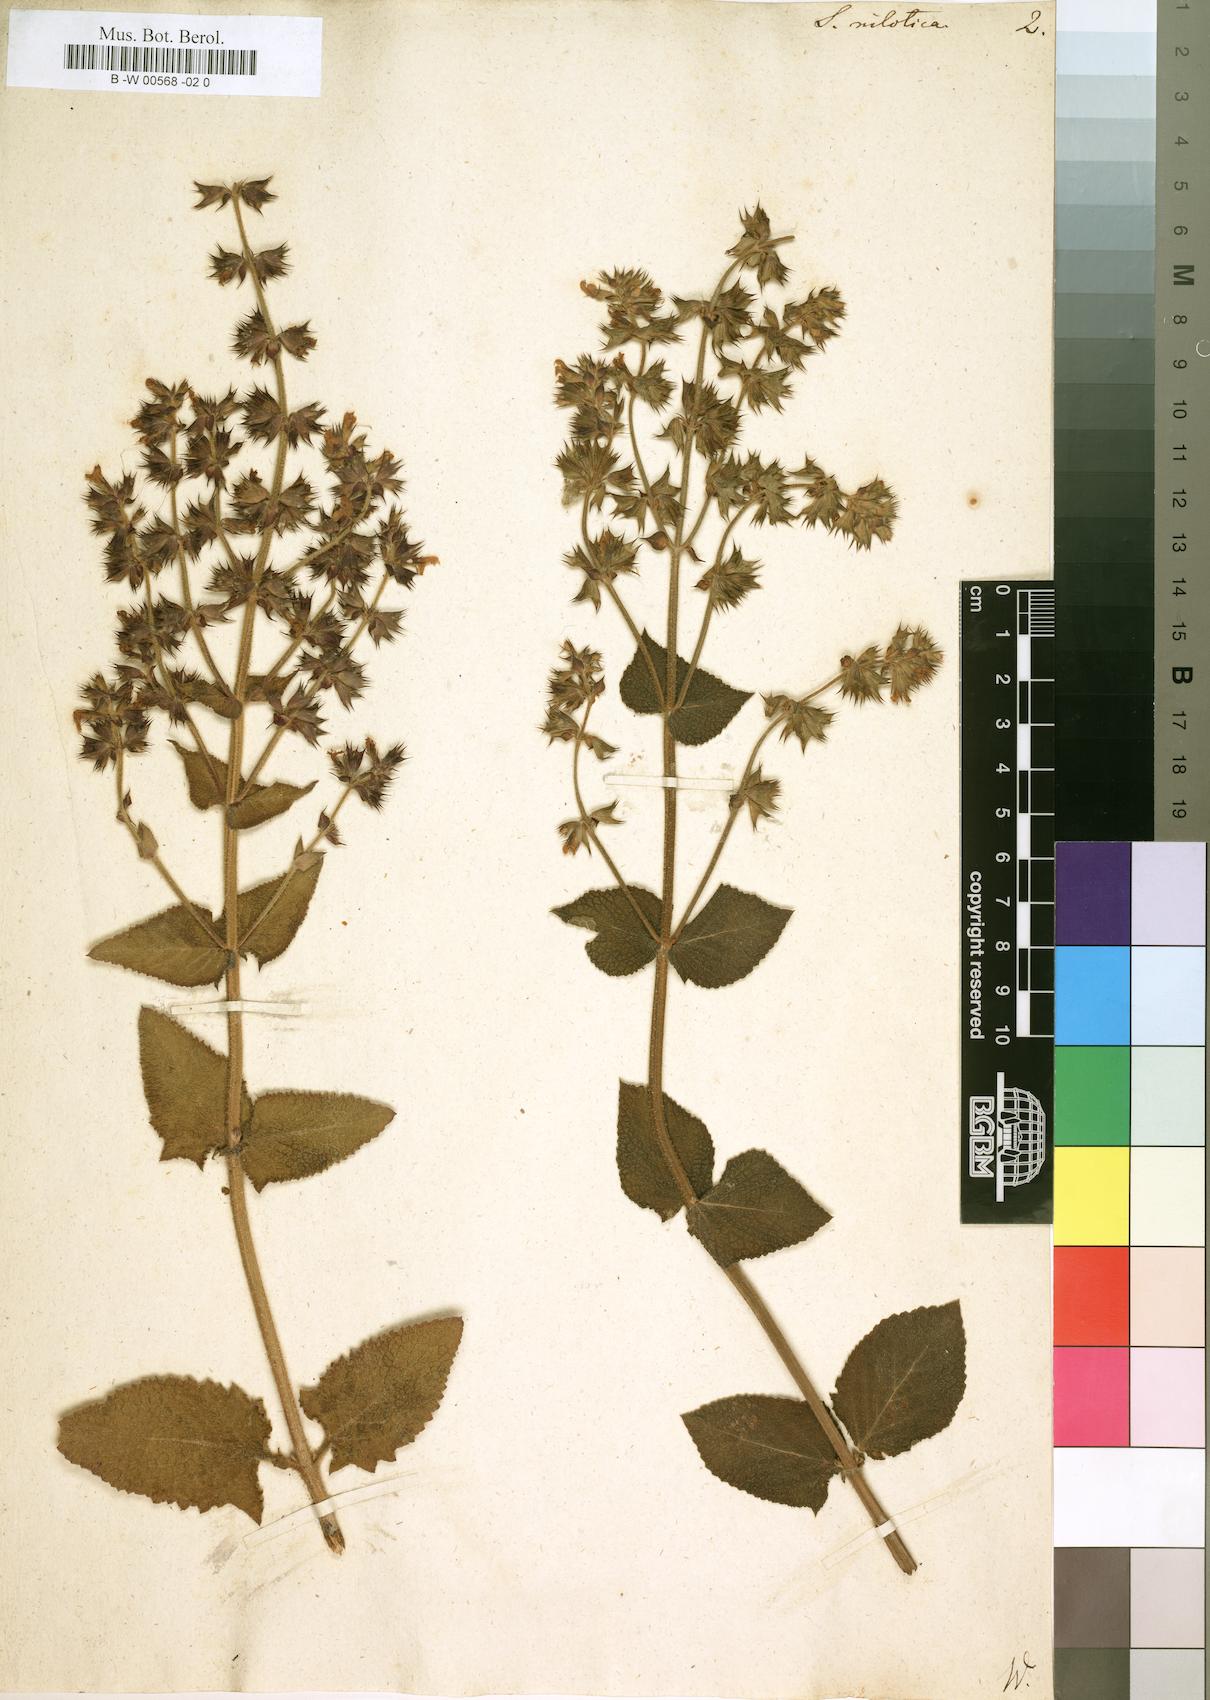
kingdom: Plantae
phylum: Tracheophyta
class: Magnoliopsida
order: Lamiales
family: Lamiaceae
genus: Salvia
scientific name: Salvia nilotica
